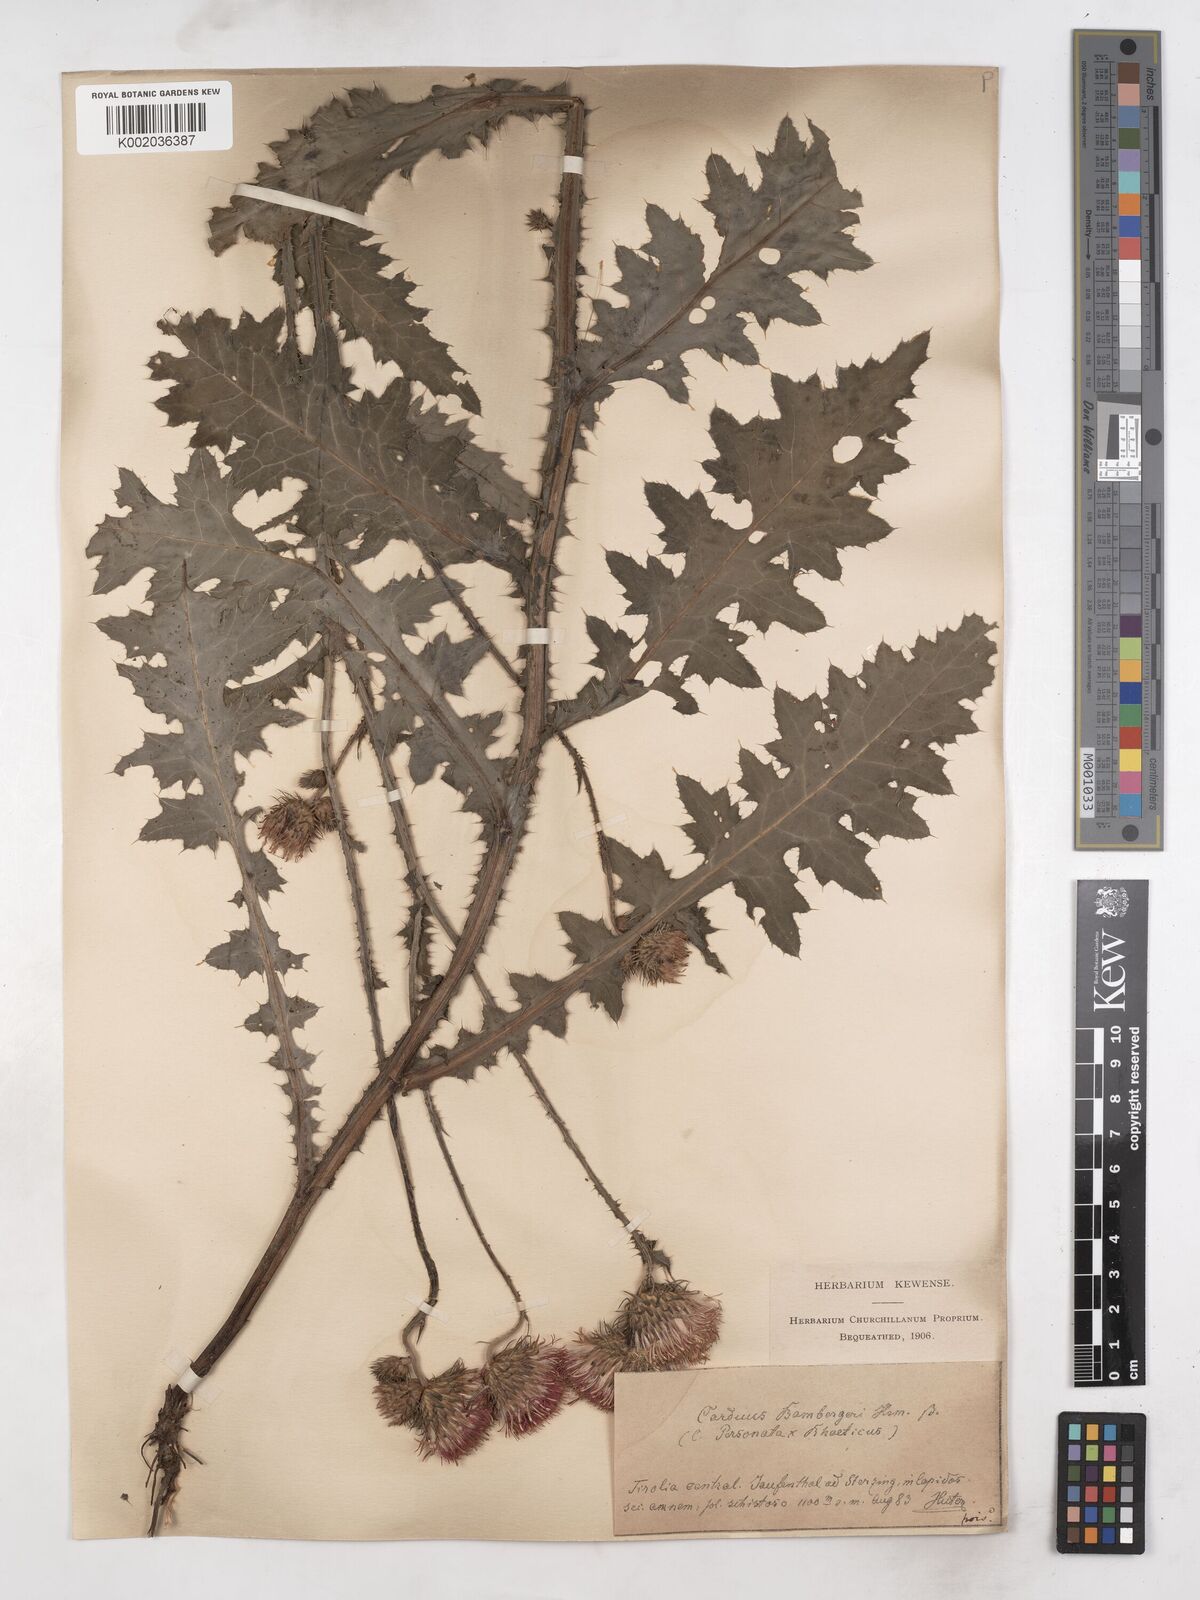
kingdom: Plantae
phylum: Tracheophyta
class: Magnoliopsida
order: Asterales
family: Asteraceae
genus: Carduus
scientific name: Carduus defloratus
